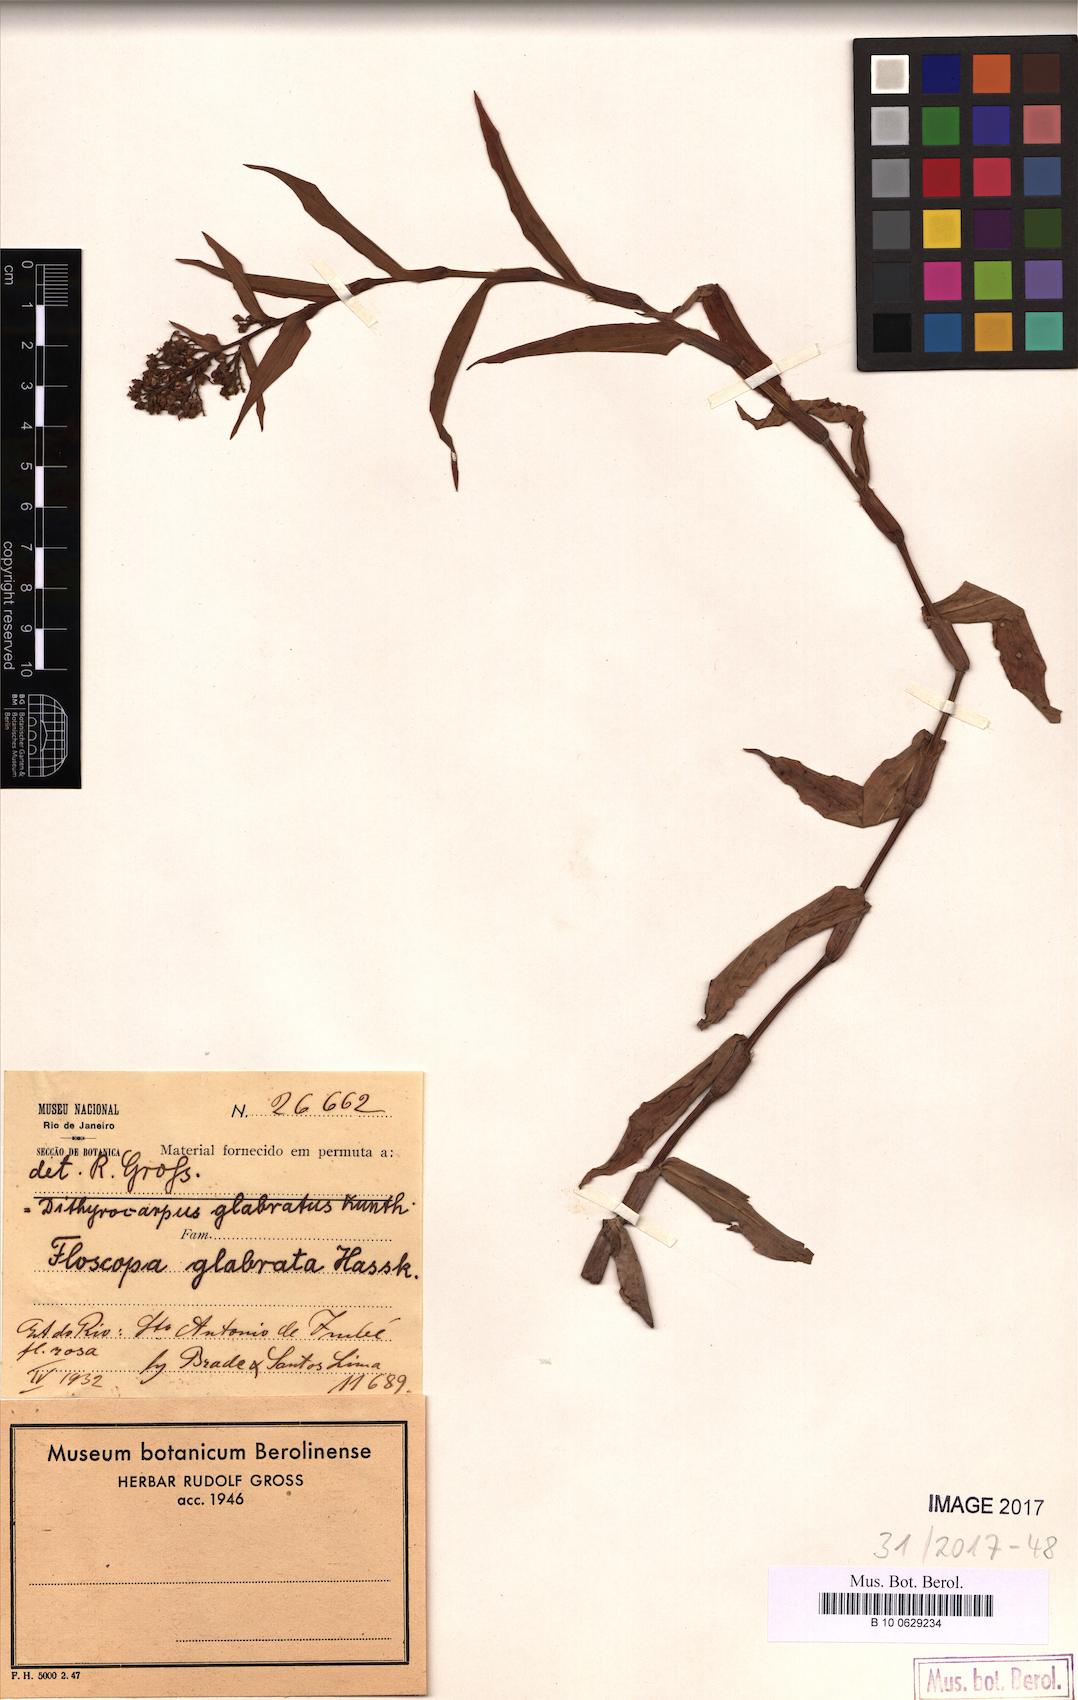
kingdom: Plantae
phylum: Tracheophyta
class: Liliopsida
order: Commelinales
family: Commelinaceae
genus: Floscopa
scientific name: Floscopa glabrata
